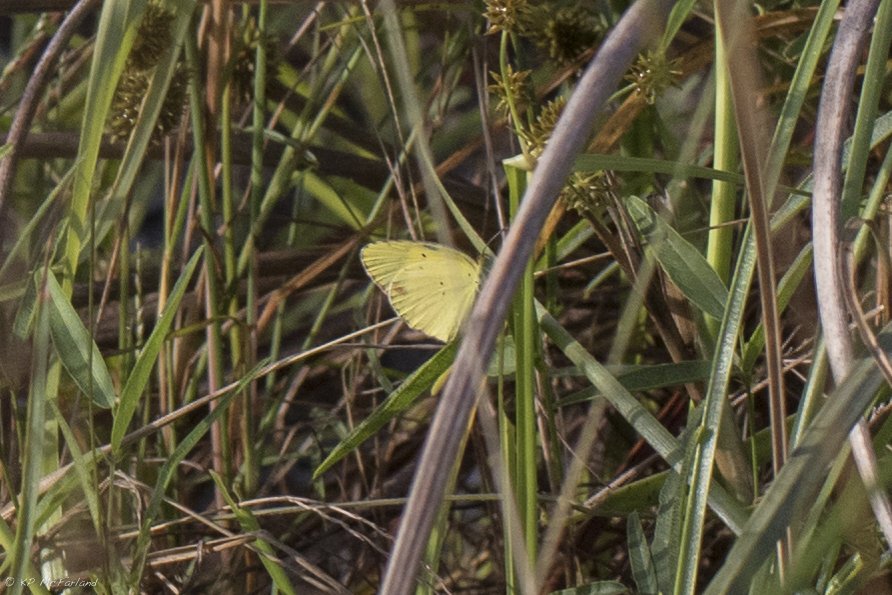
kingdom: Animalia
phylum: Arthropoda
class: Insecta
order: Lepidoptera
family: Pieridae
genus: Pyrisitia
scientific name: Pyrisitia lisa
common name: Little Yellow
